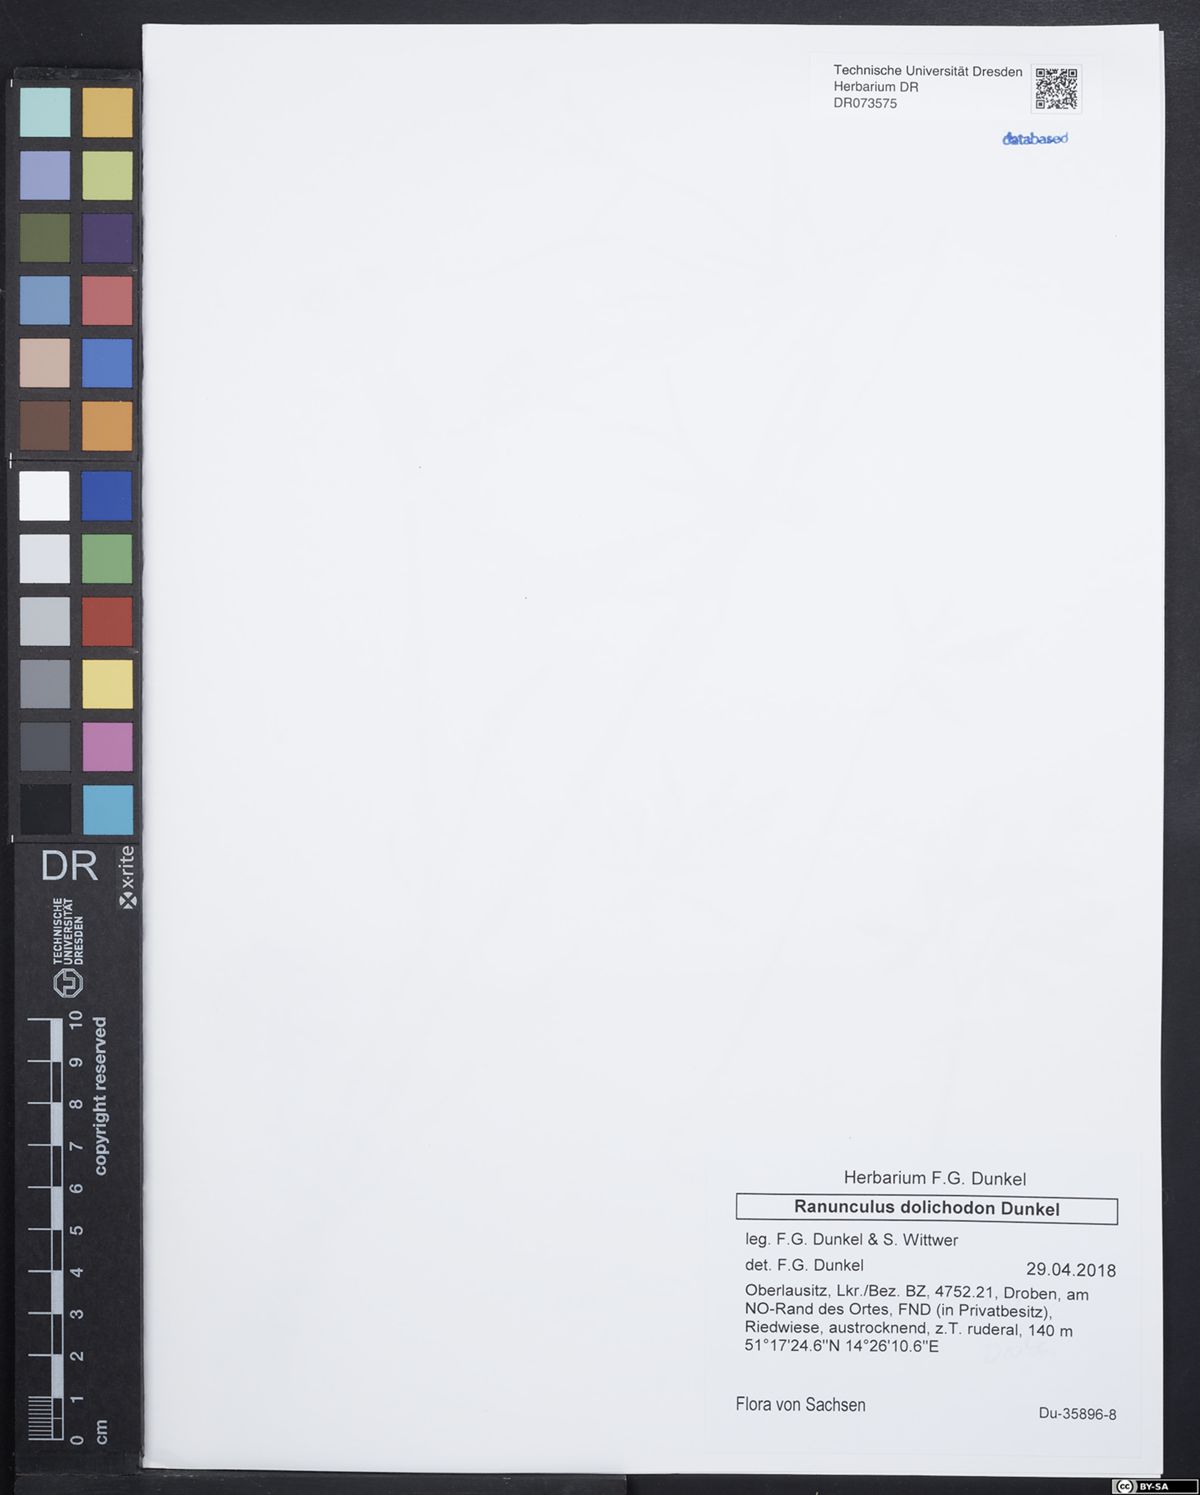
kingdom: Plantae
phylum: Tracheophyta
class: Magnoliopsida
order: Ranunculales
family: Ranunculaceae
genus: Ranunculus
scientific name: Ranunculus dolichodon
